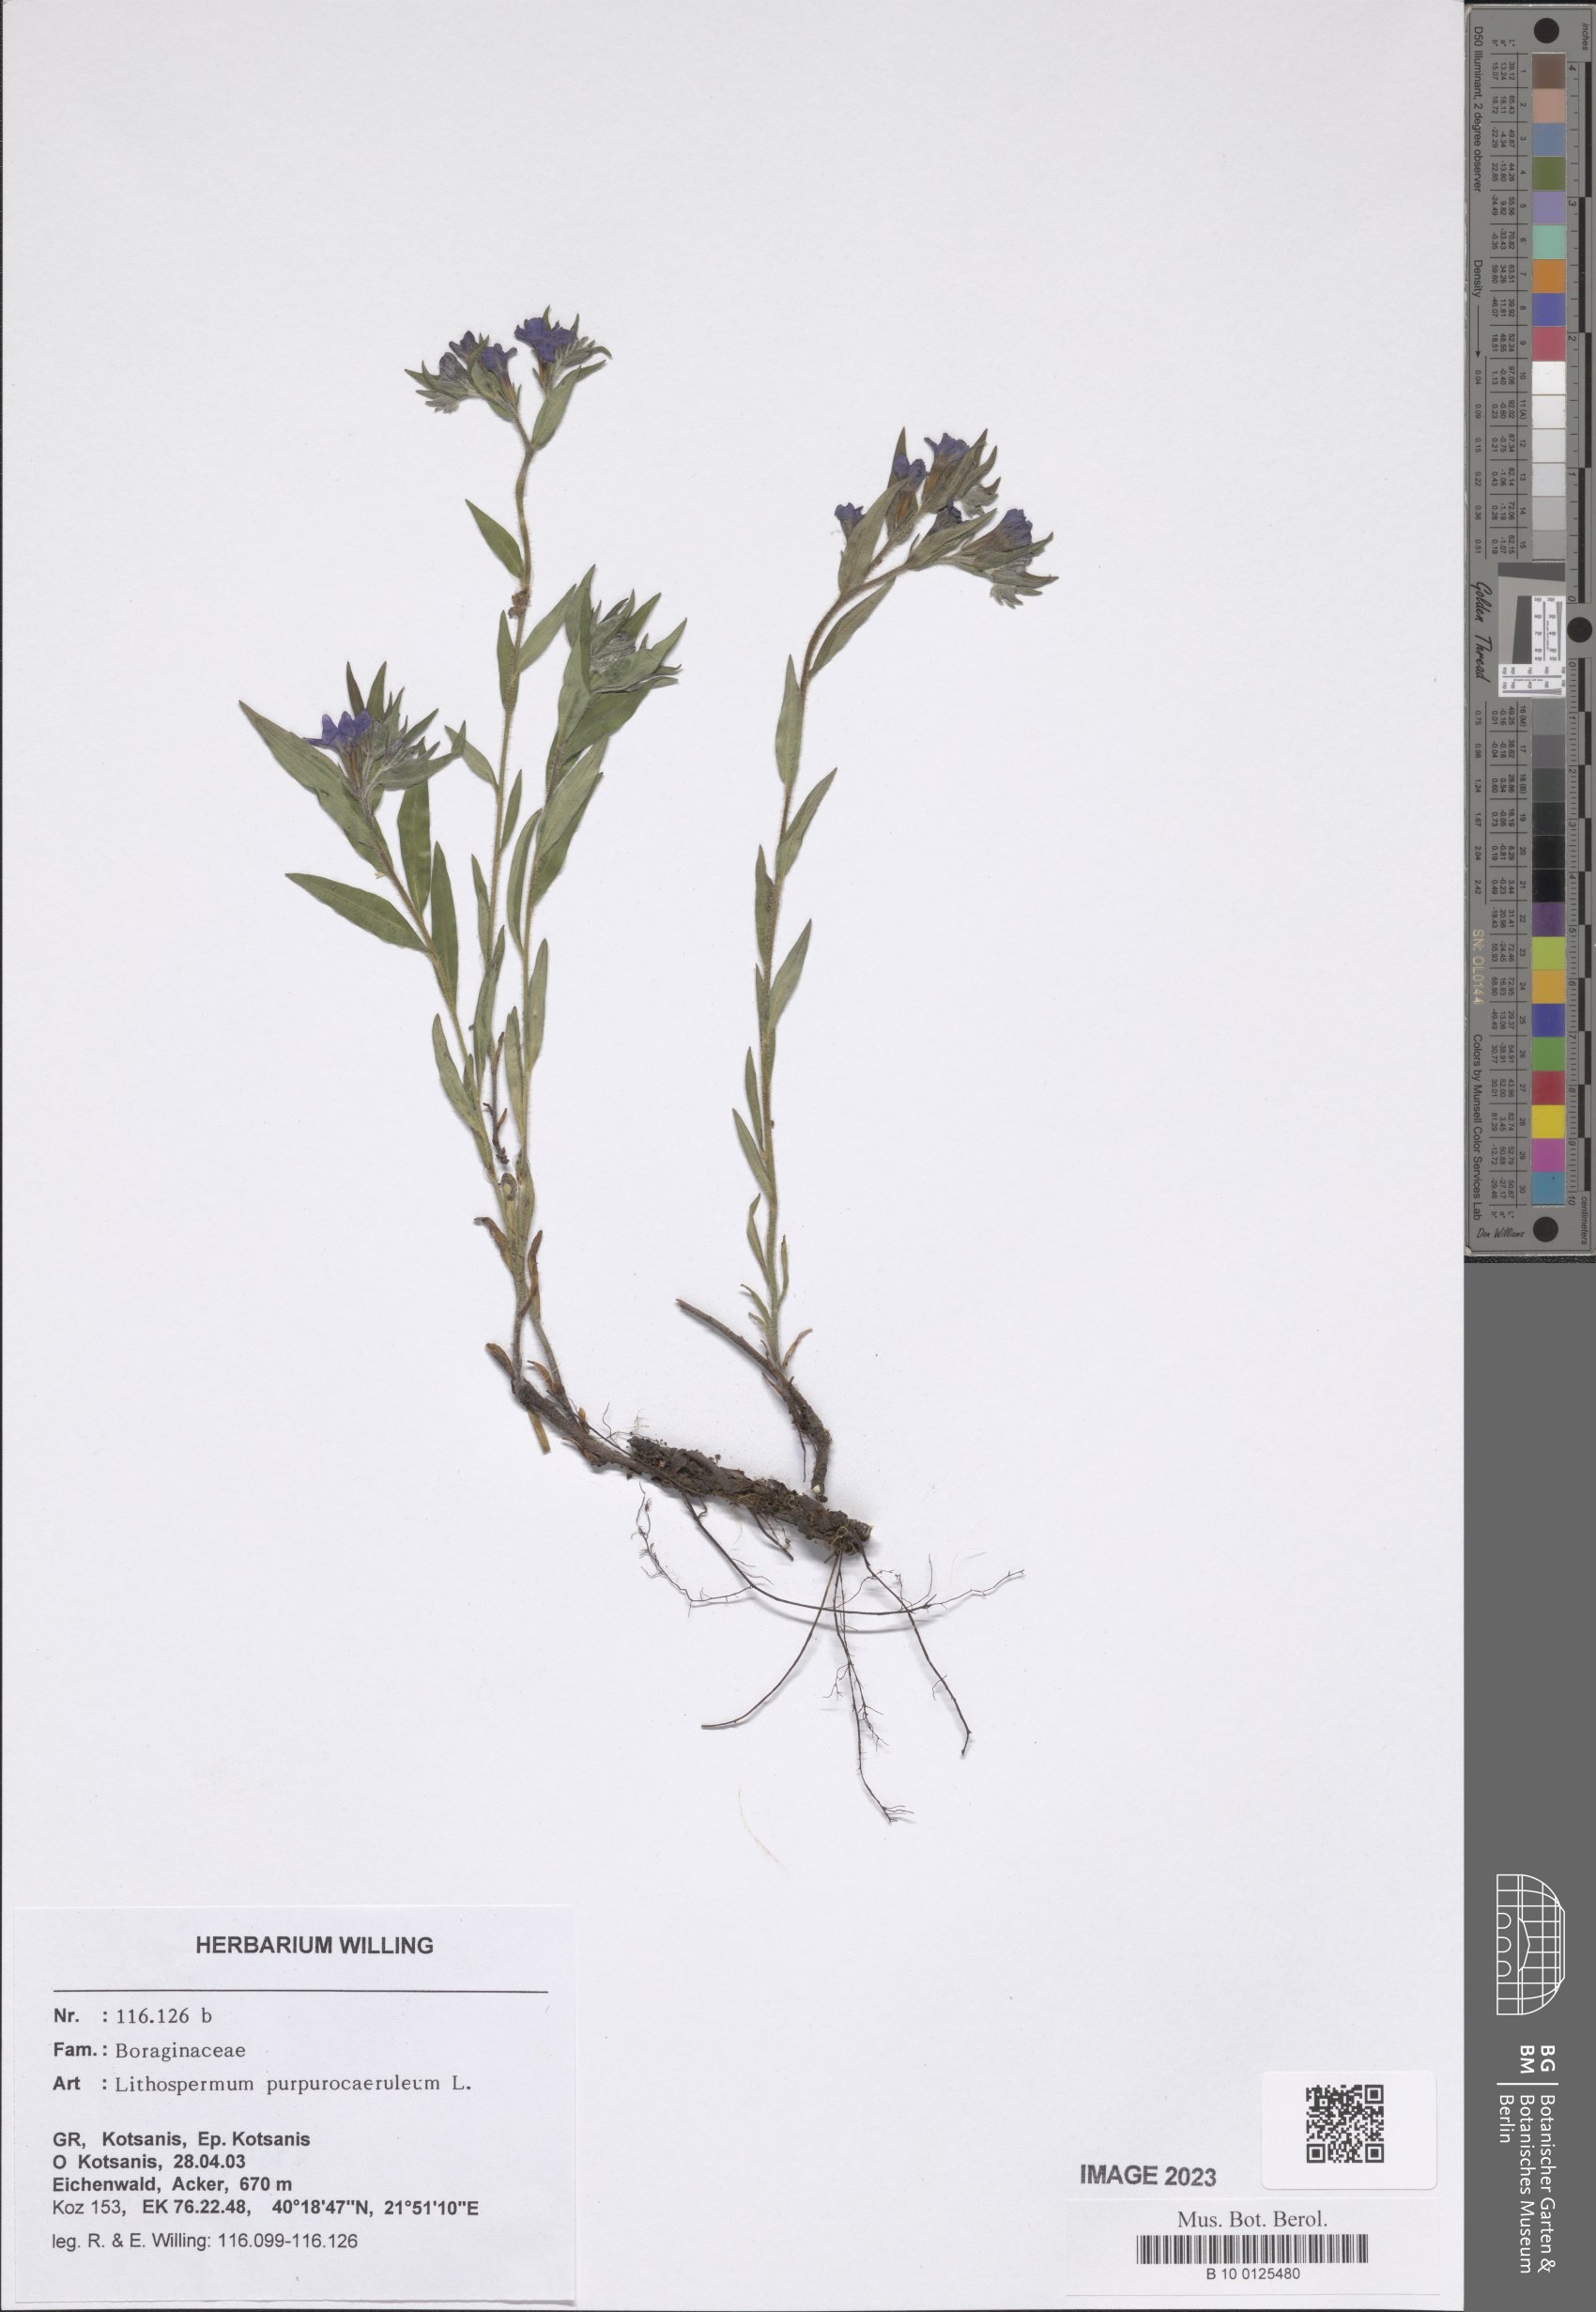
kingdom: Plantae
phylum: Tracheophyta
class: Magnoliopsida
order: Boraginales
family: Boraginaceae
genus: Aegonychon
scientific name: Aegonychon purpurocaeruleum
